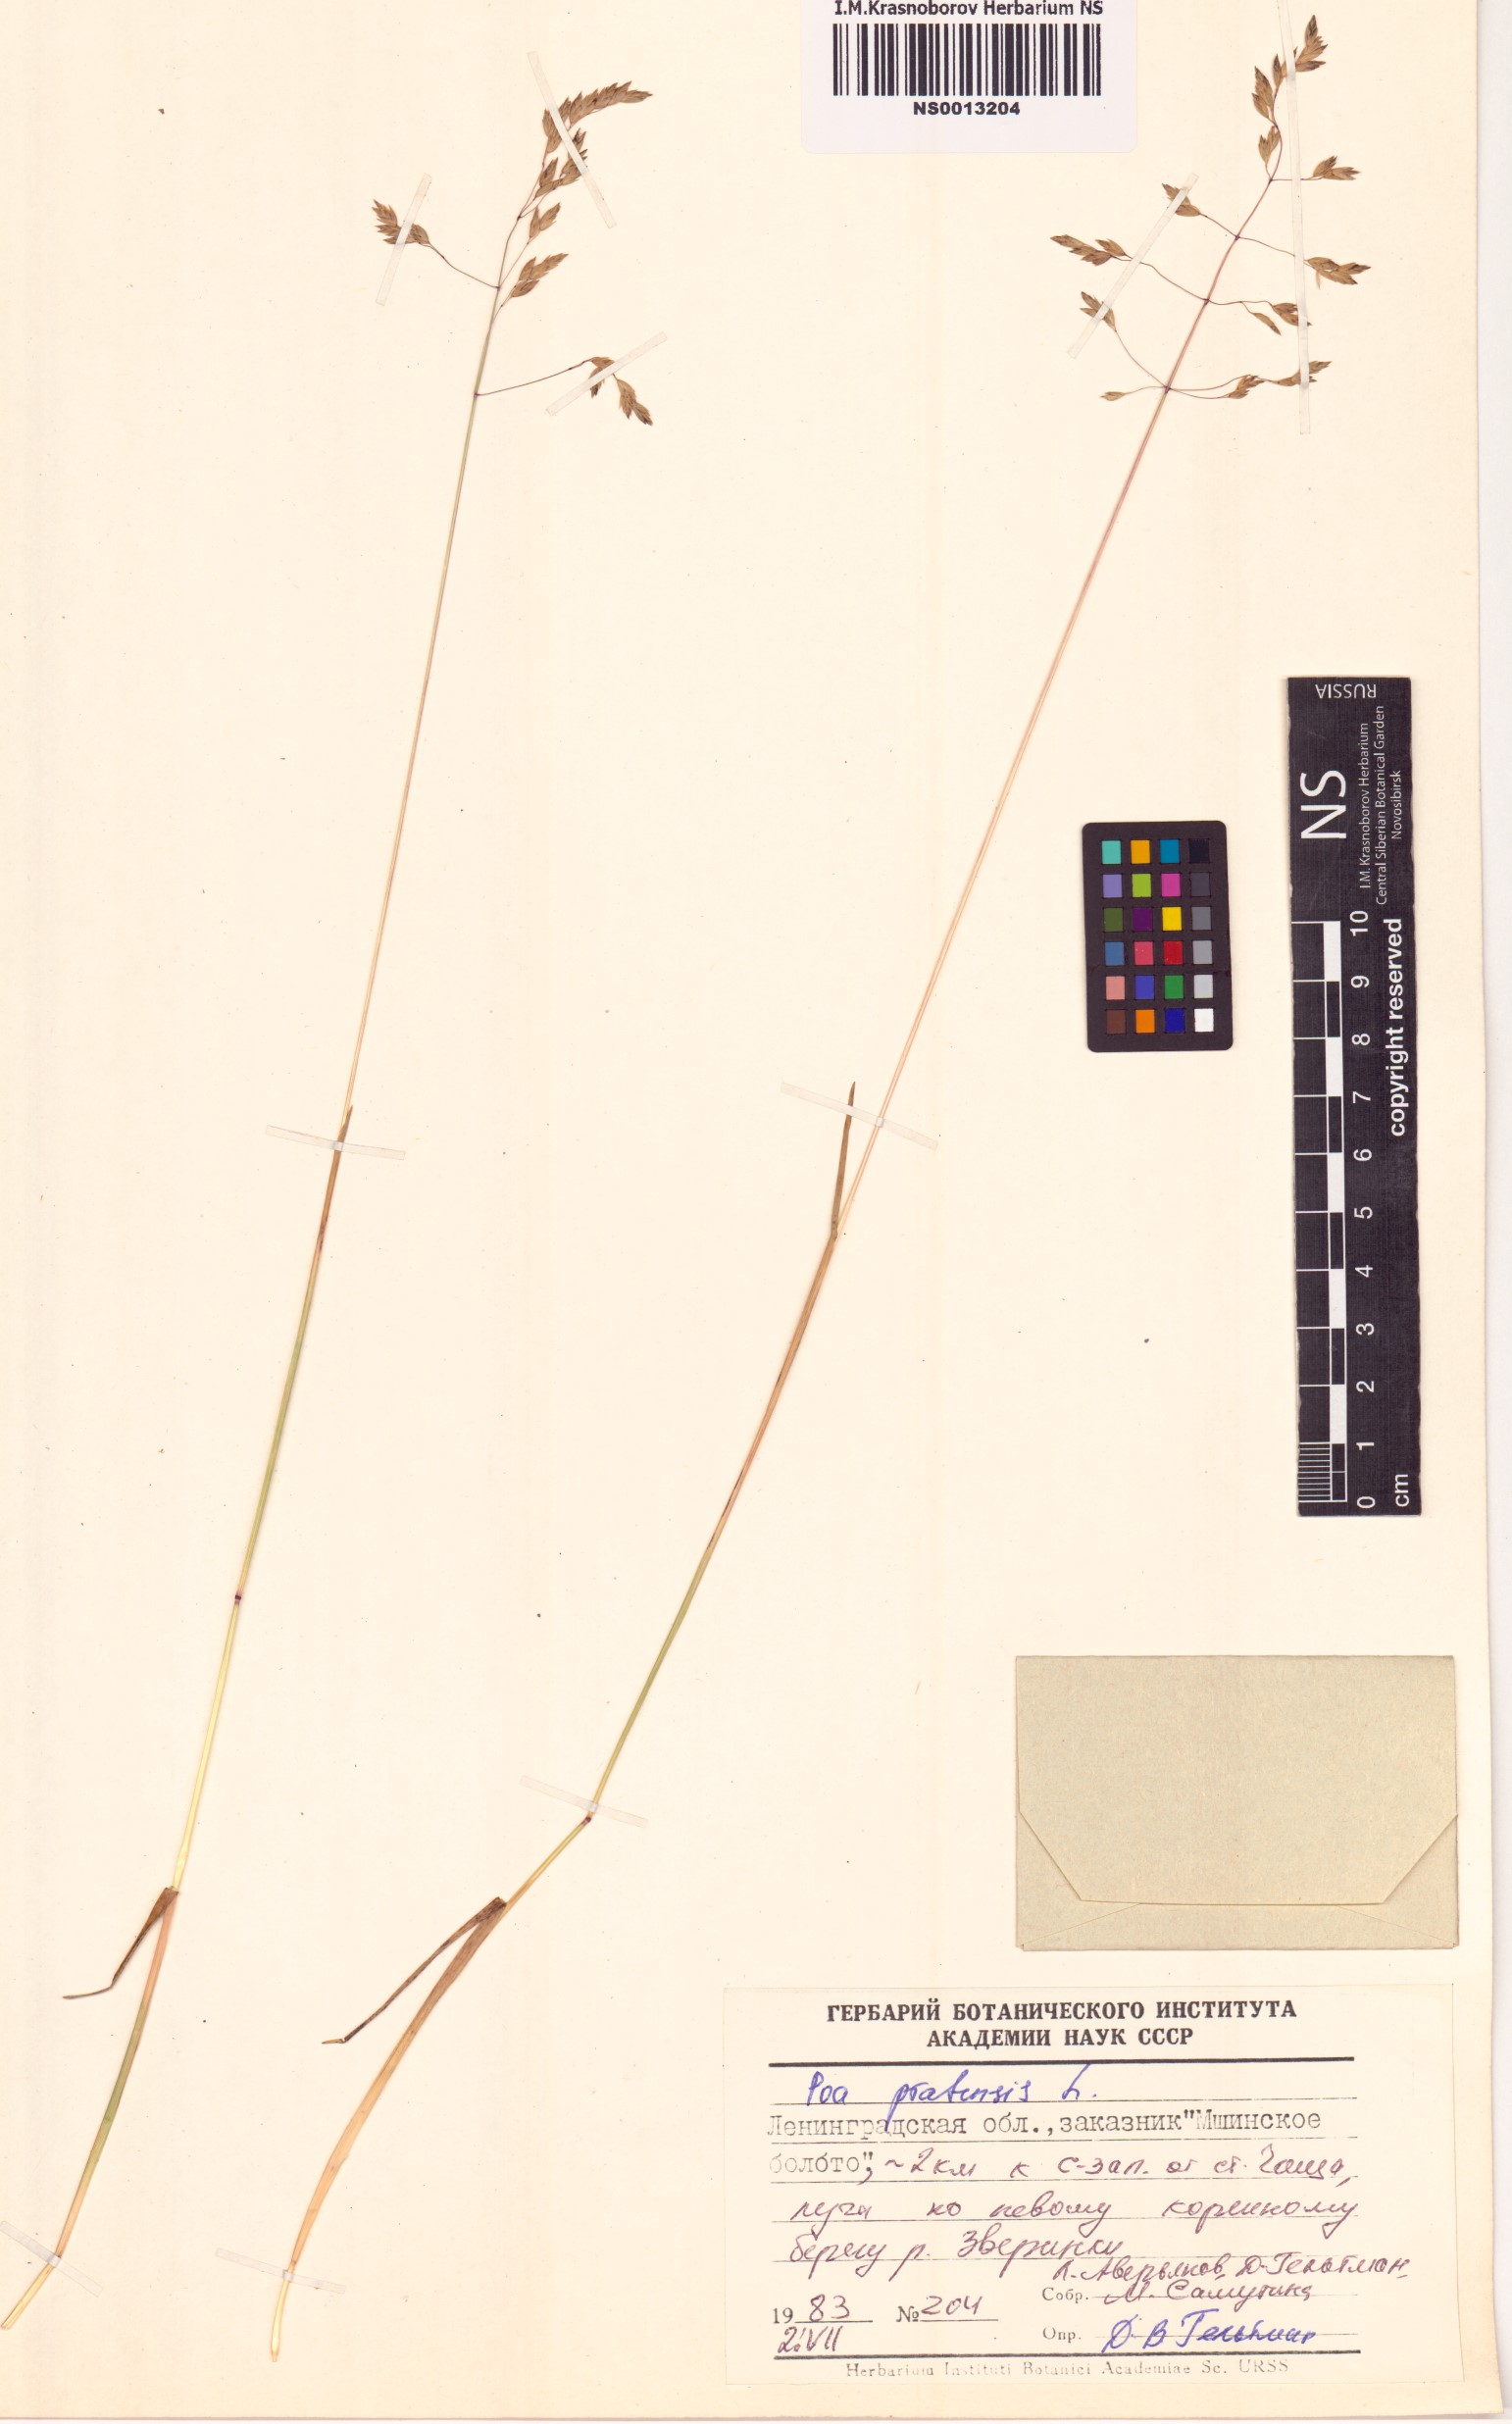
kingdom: Plantae
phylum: Tracheophyta
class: Liliopsida
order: Poales
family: Poaceae
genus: Poa
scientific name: Poa pratensis
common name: Kentucky bluegrass
